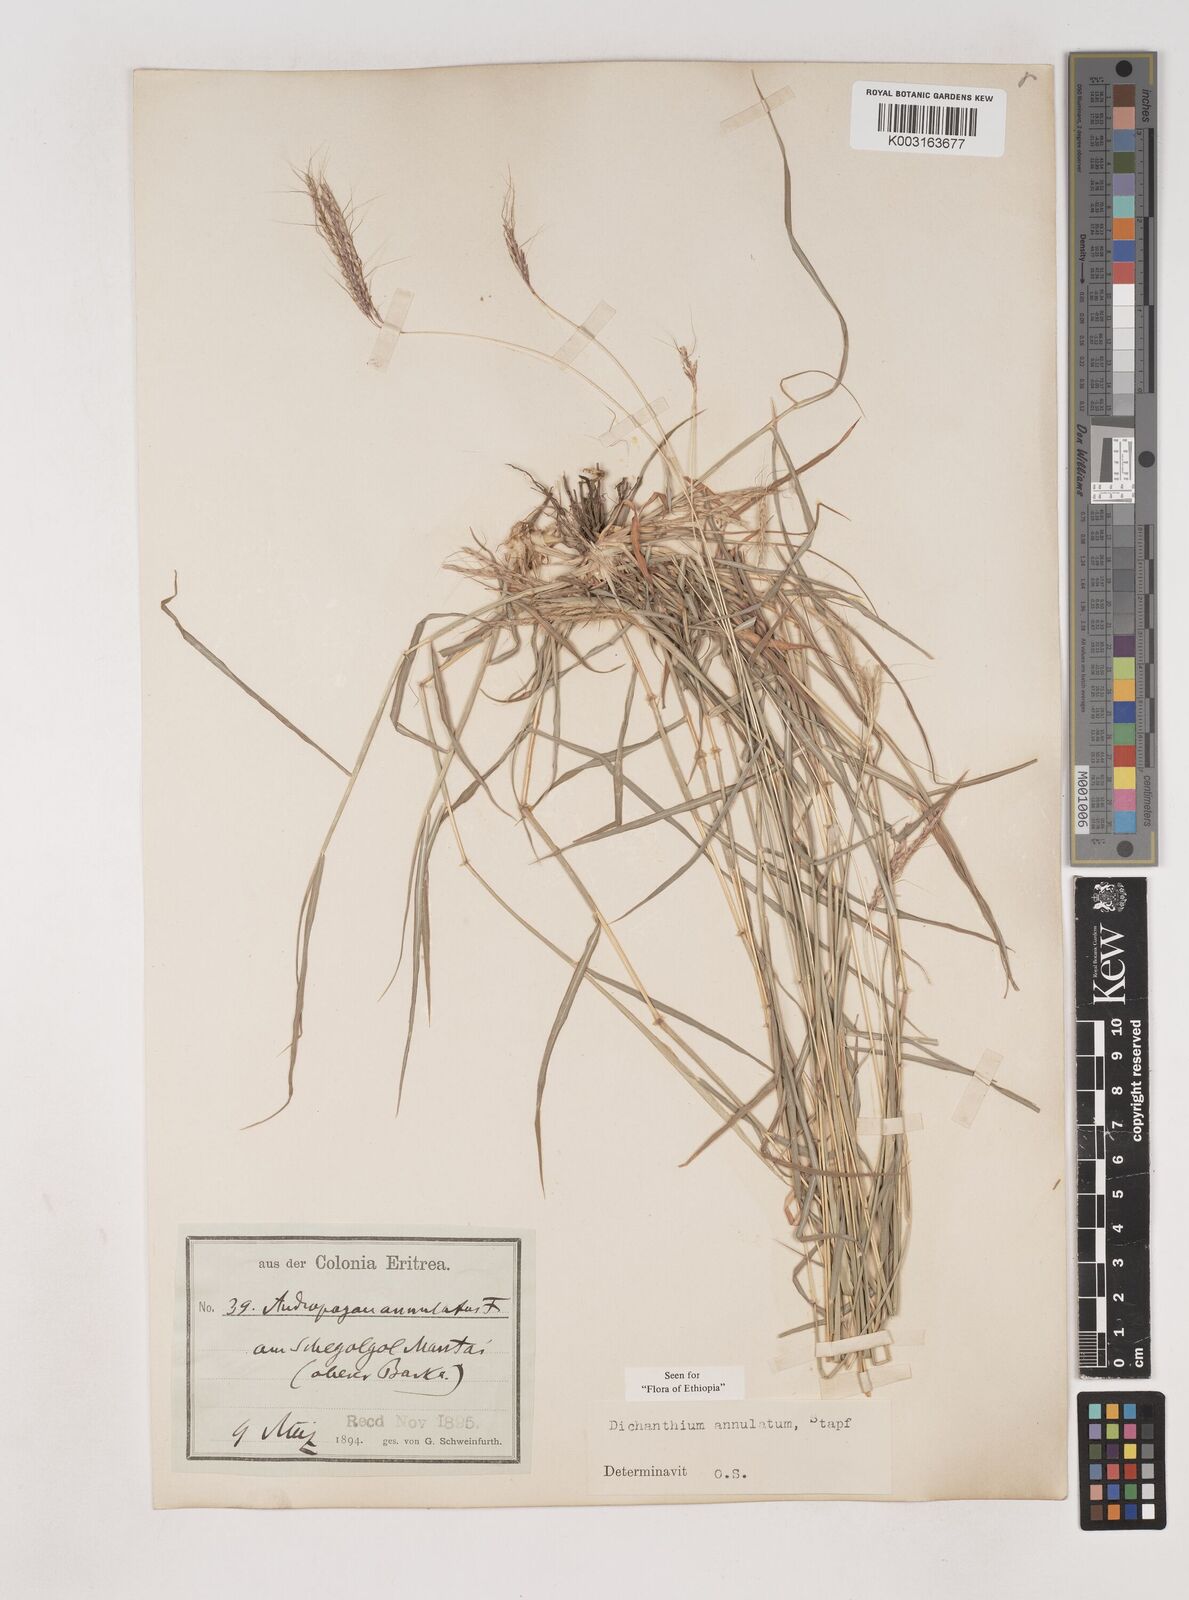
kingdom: Plantae
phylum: Tracheophyta
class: Liliopsida
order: Poales
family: Poaceae
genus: Dichanthium
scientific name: Dichanthium annulatum
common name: Kleberg's bluestem
